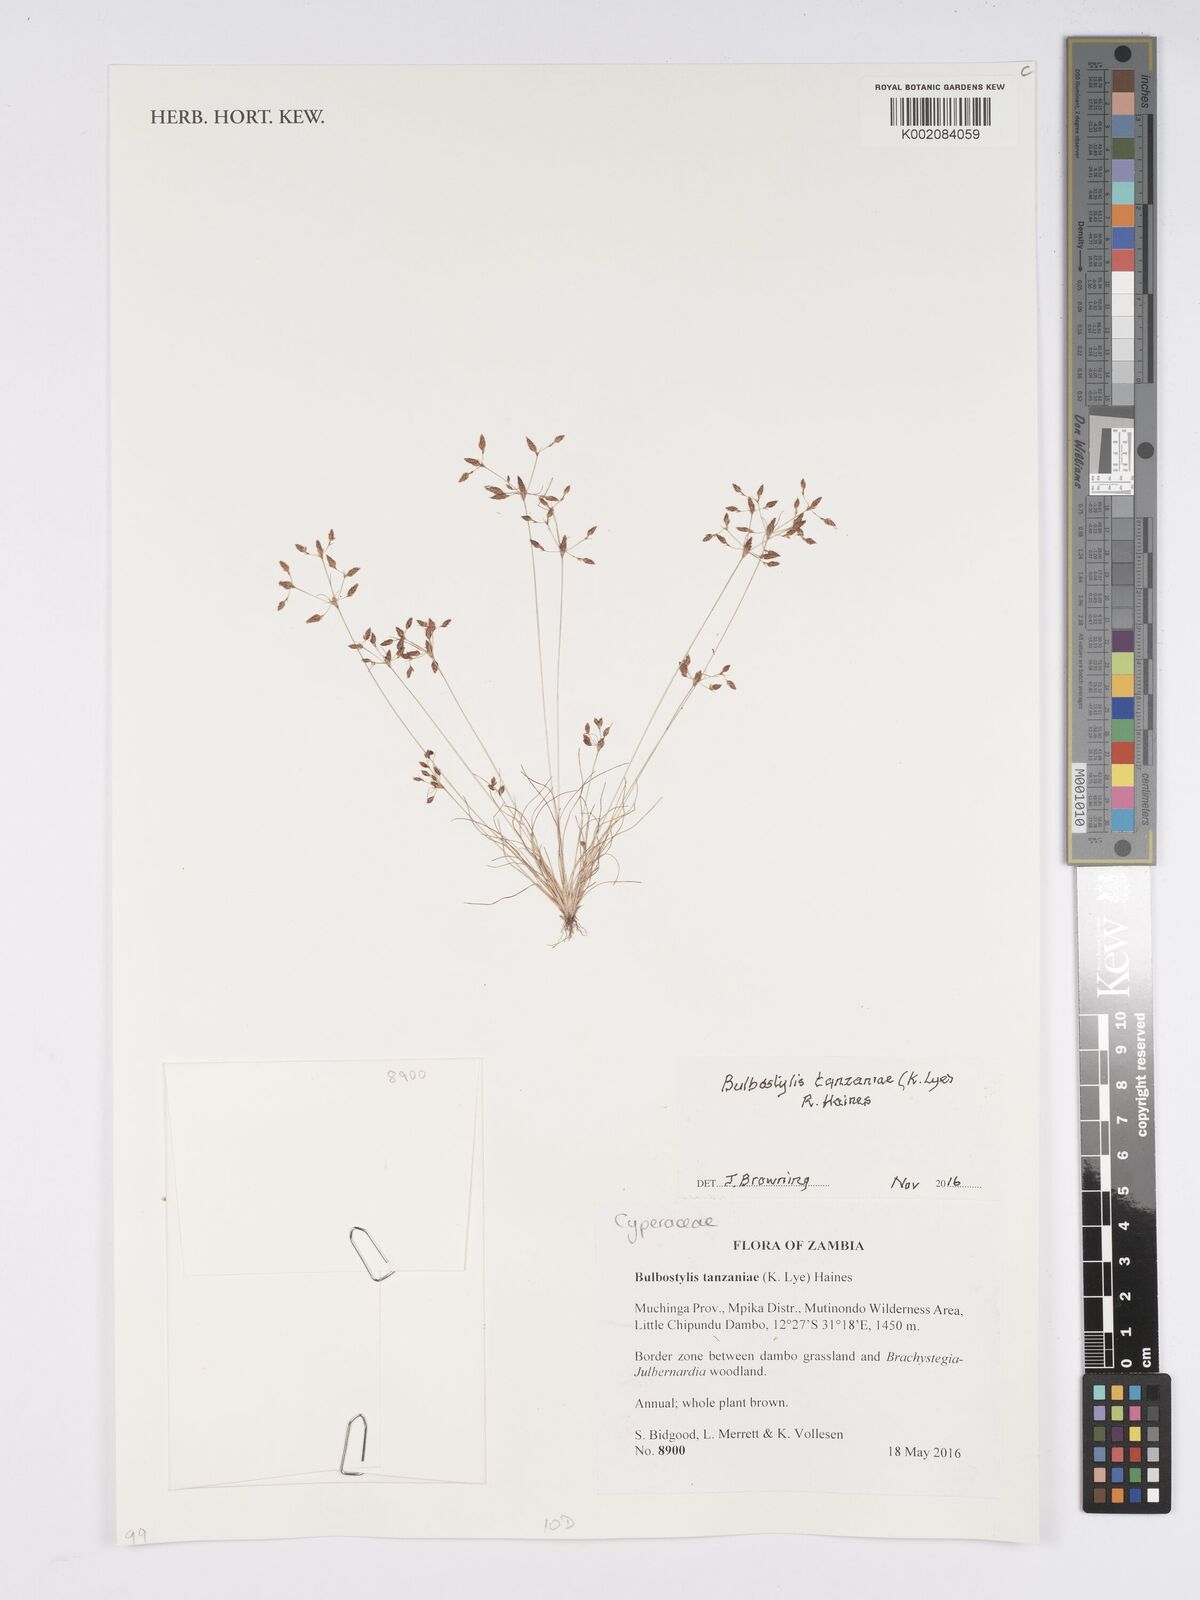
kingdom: Plantae
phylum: Tracheophyta
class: Liliopsida
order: Poales
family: Cyperaceae
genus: Bulbostylis
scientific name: Bulbostylis tanzaniae
